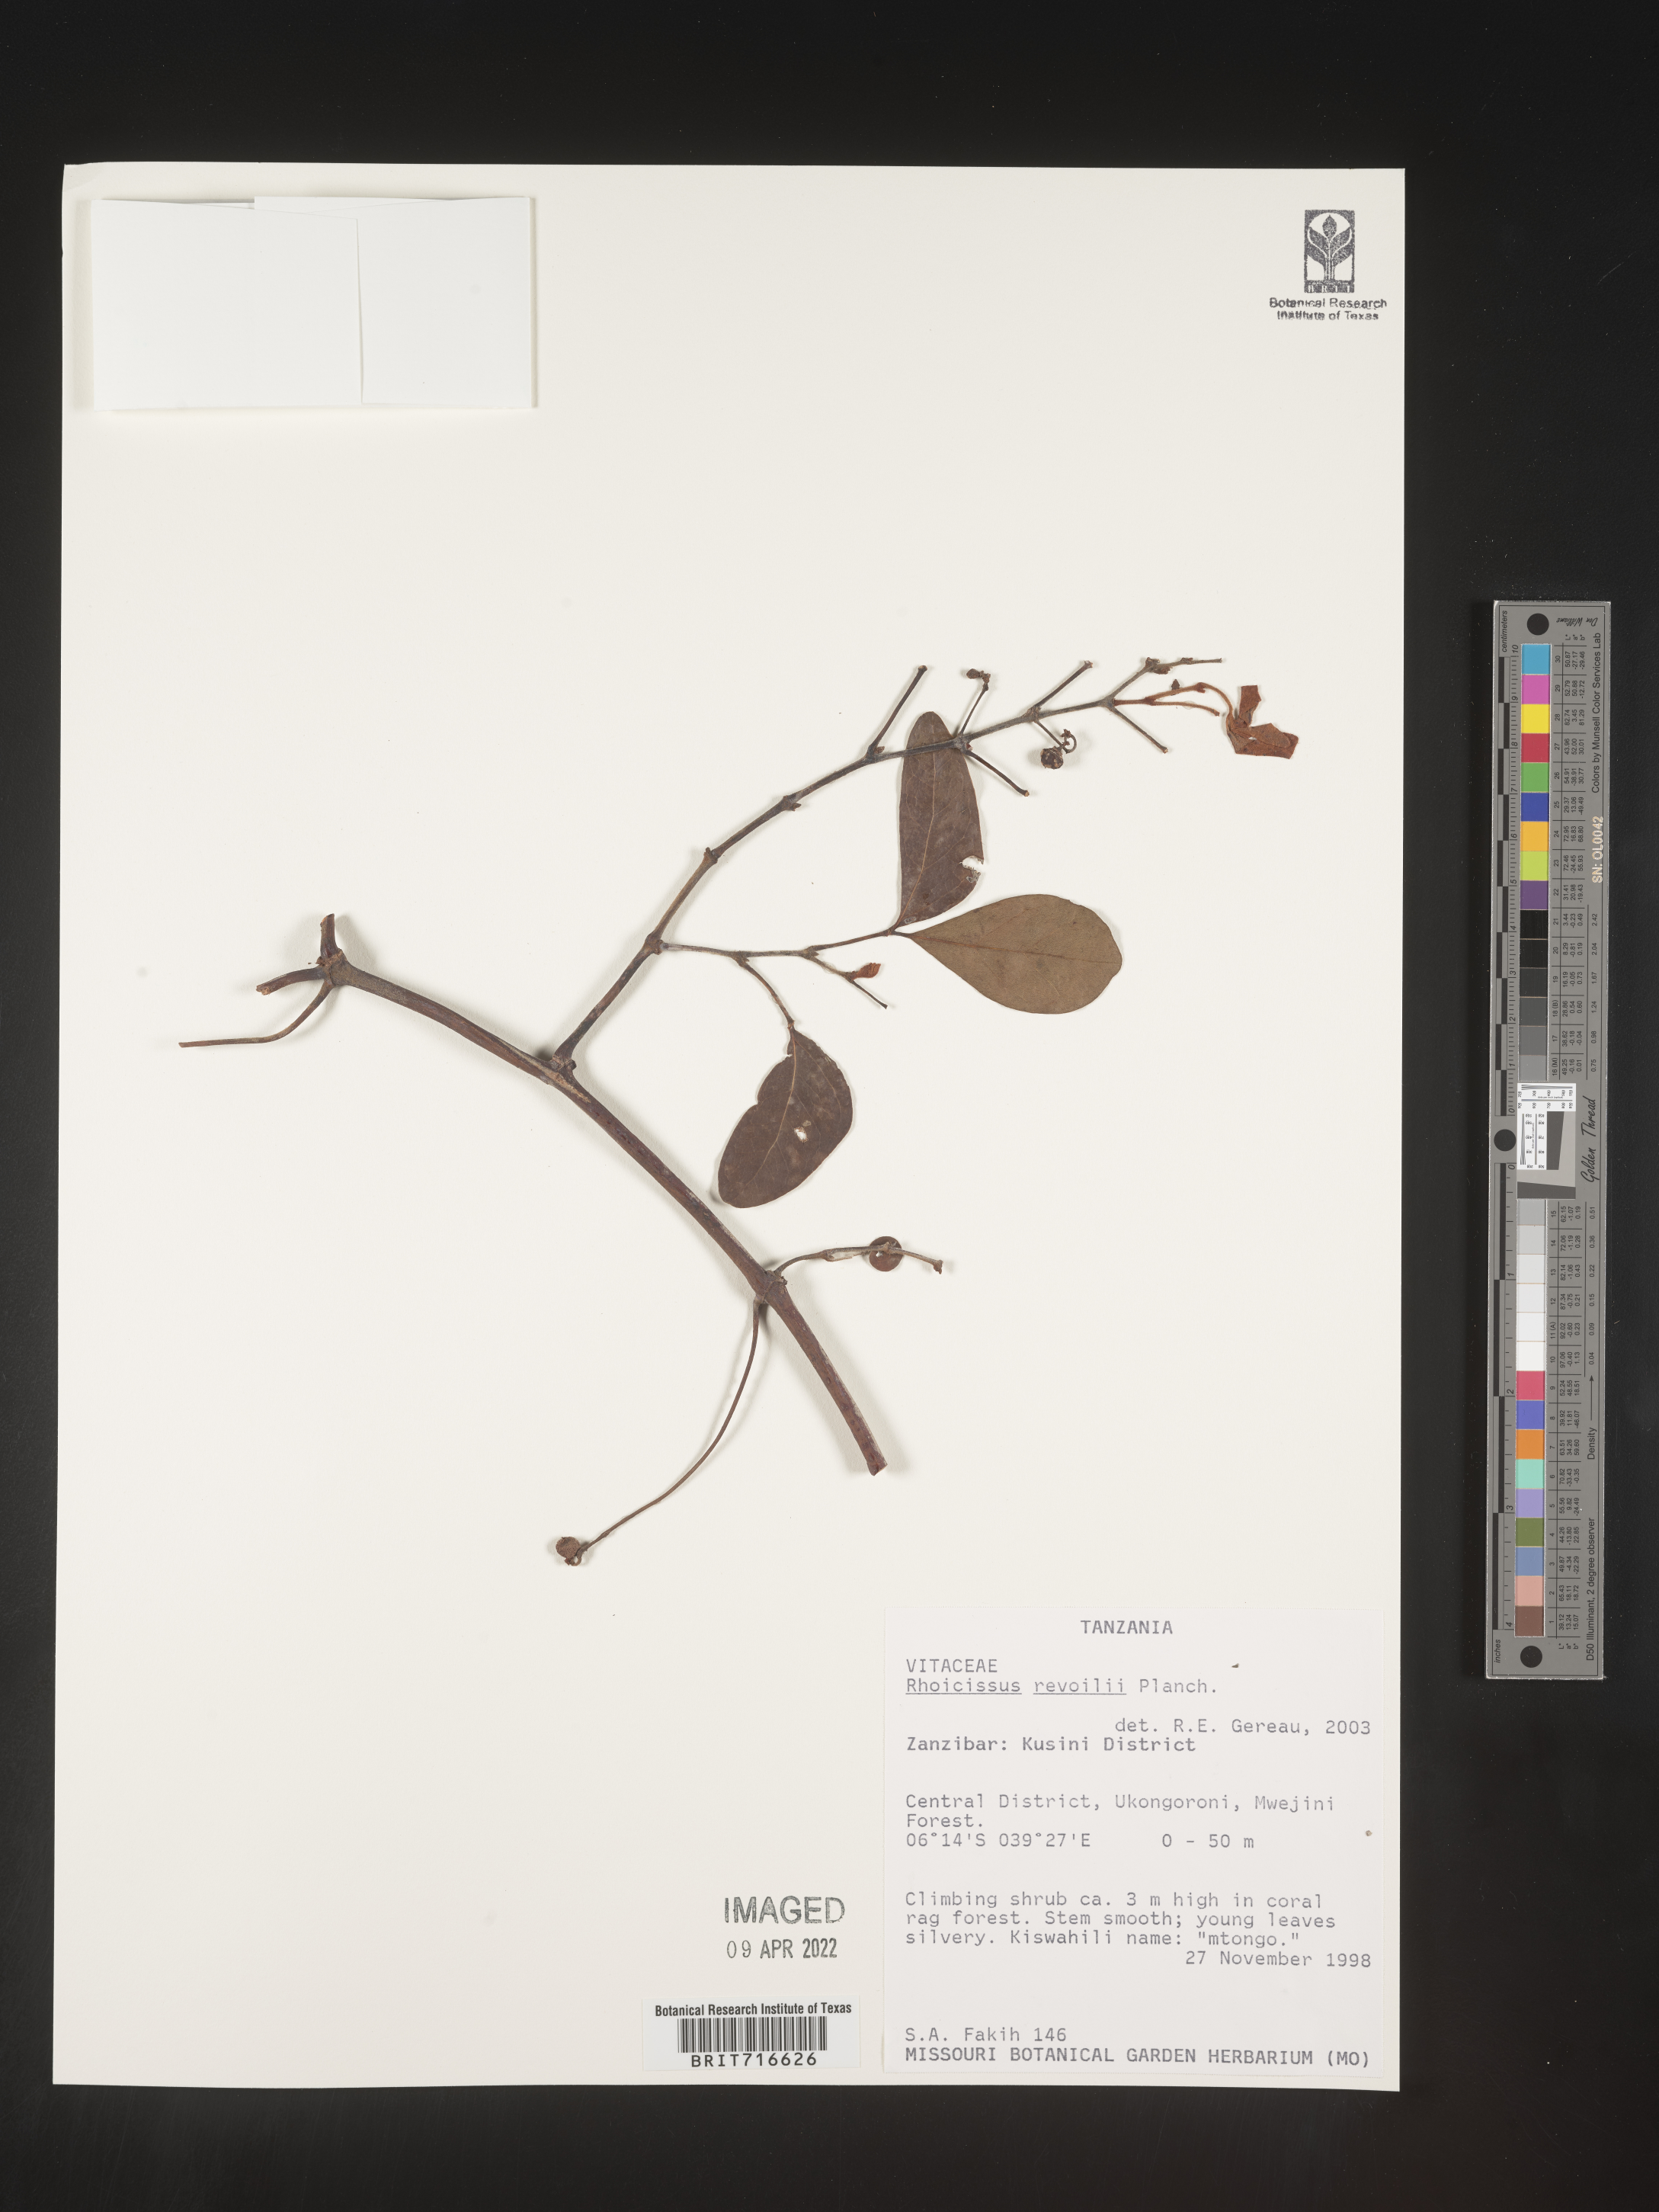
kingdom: Plantae
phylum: Tracheophyta
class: Magnoliopsida
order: Vitales
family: Vitaceae
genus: Rhoicissus
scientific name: Rhoicissus
